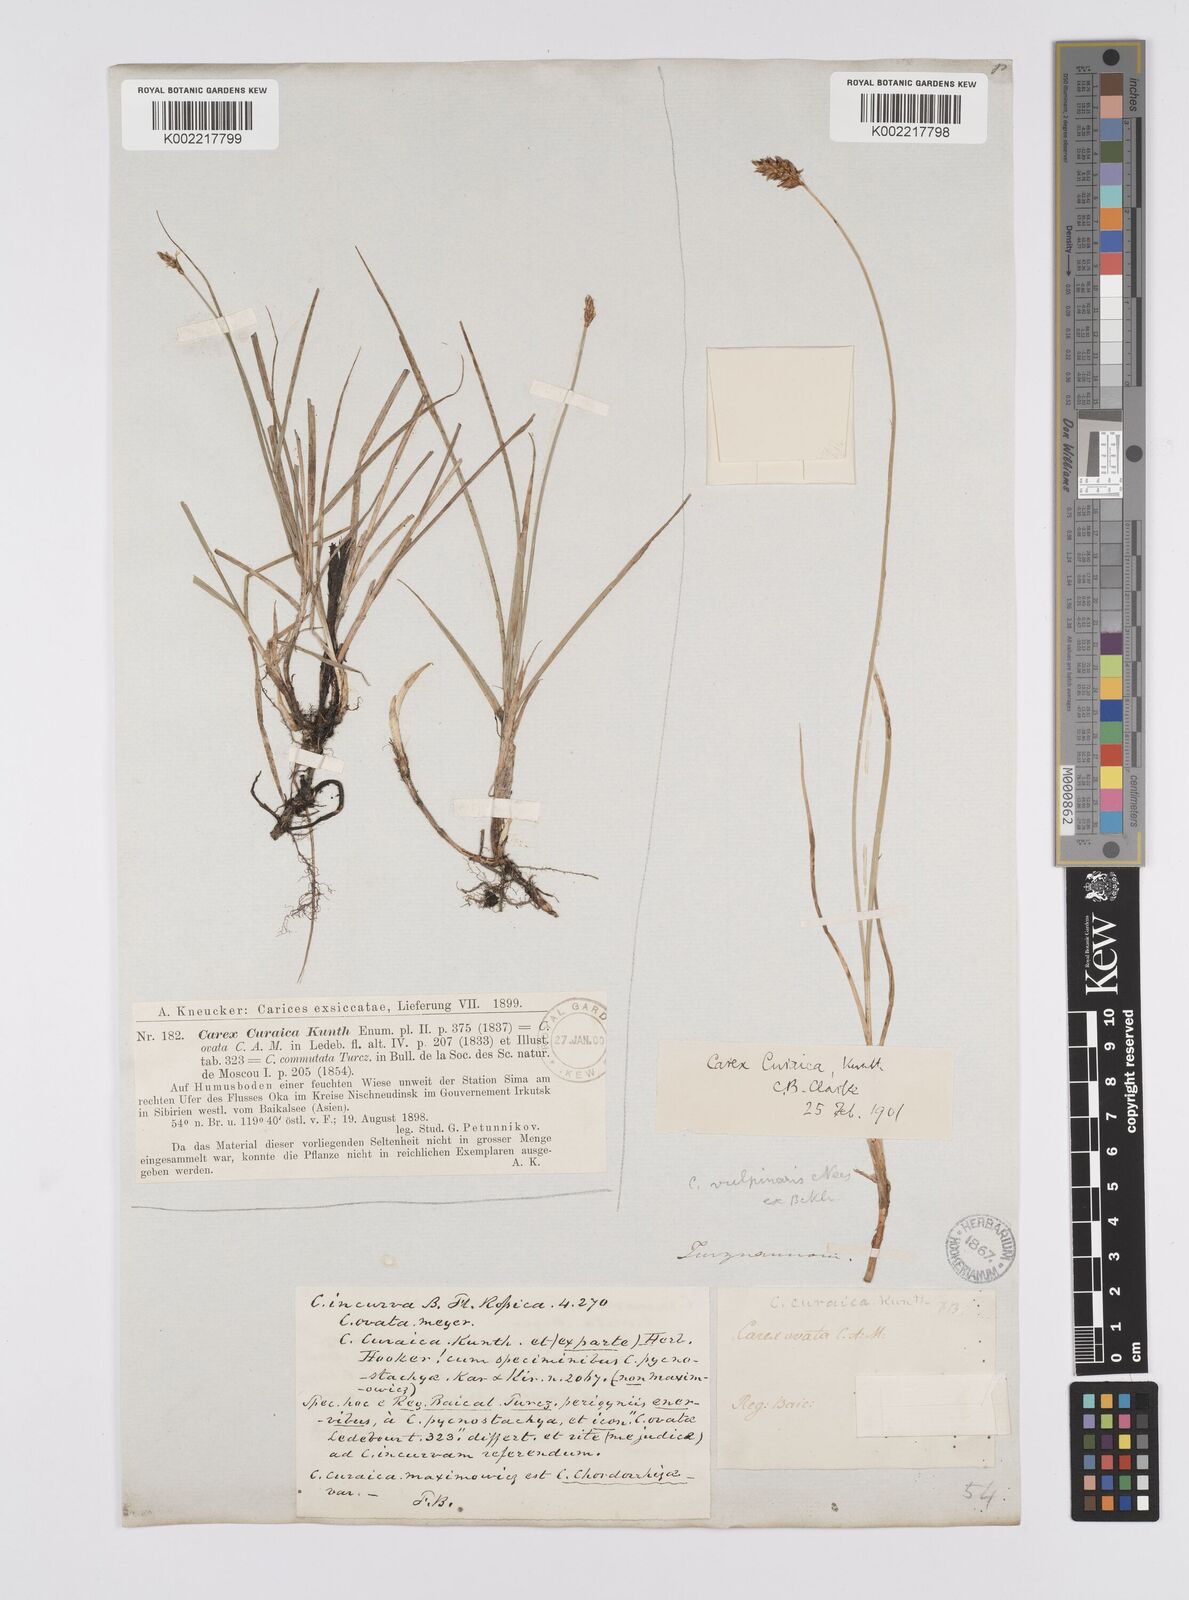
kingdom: Plantae
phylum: Tracheophyta
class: Liliopsida
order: Poales
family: Cyperaceae
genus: Carex
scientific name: Carex curaica
